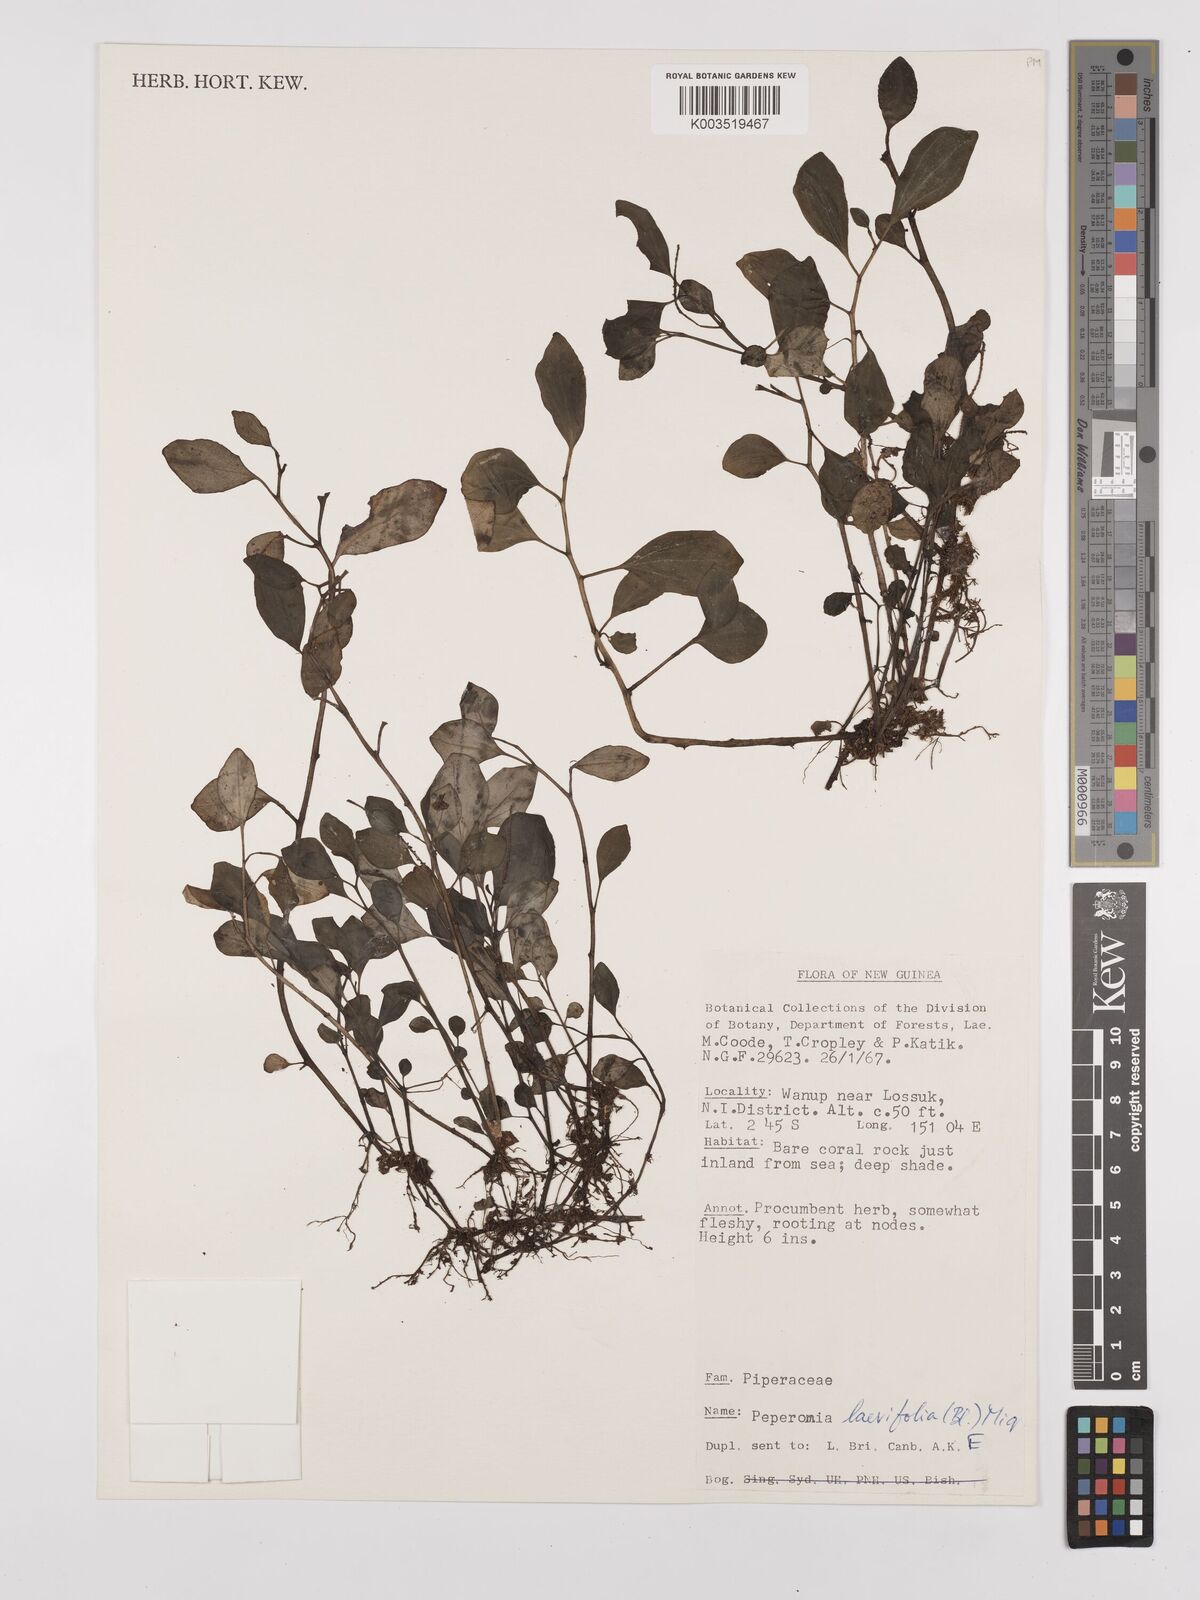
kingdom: Plantae
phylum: Tracheophyta
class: Magnoliopsida
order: Piperales
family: Piperaceae
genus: Peperomia
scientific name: Peperomia laevifolia
